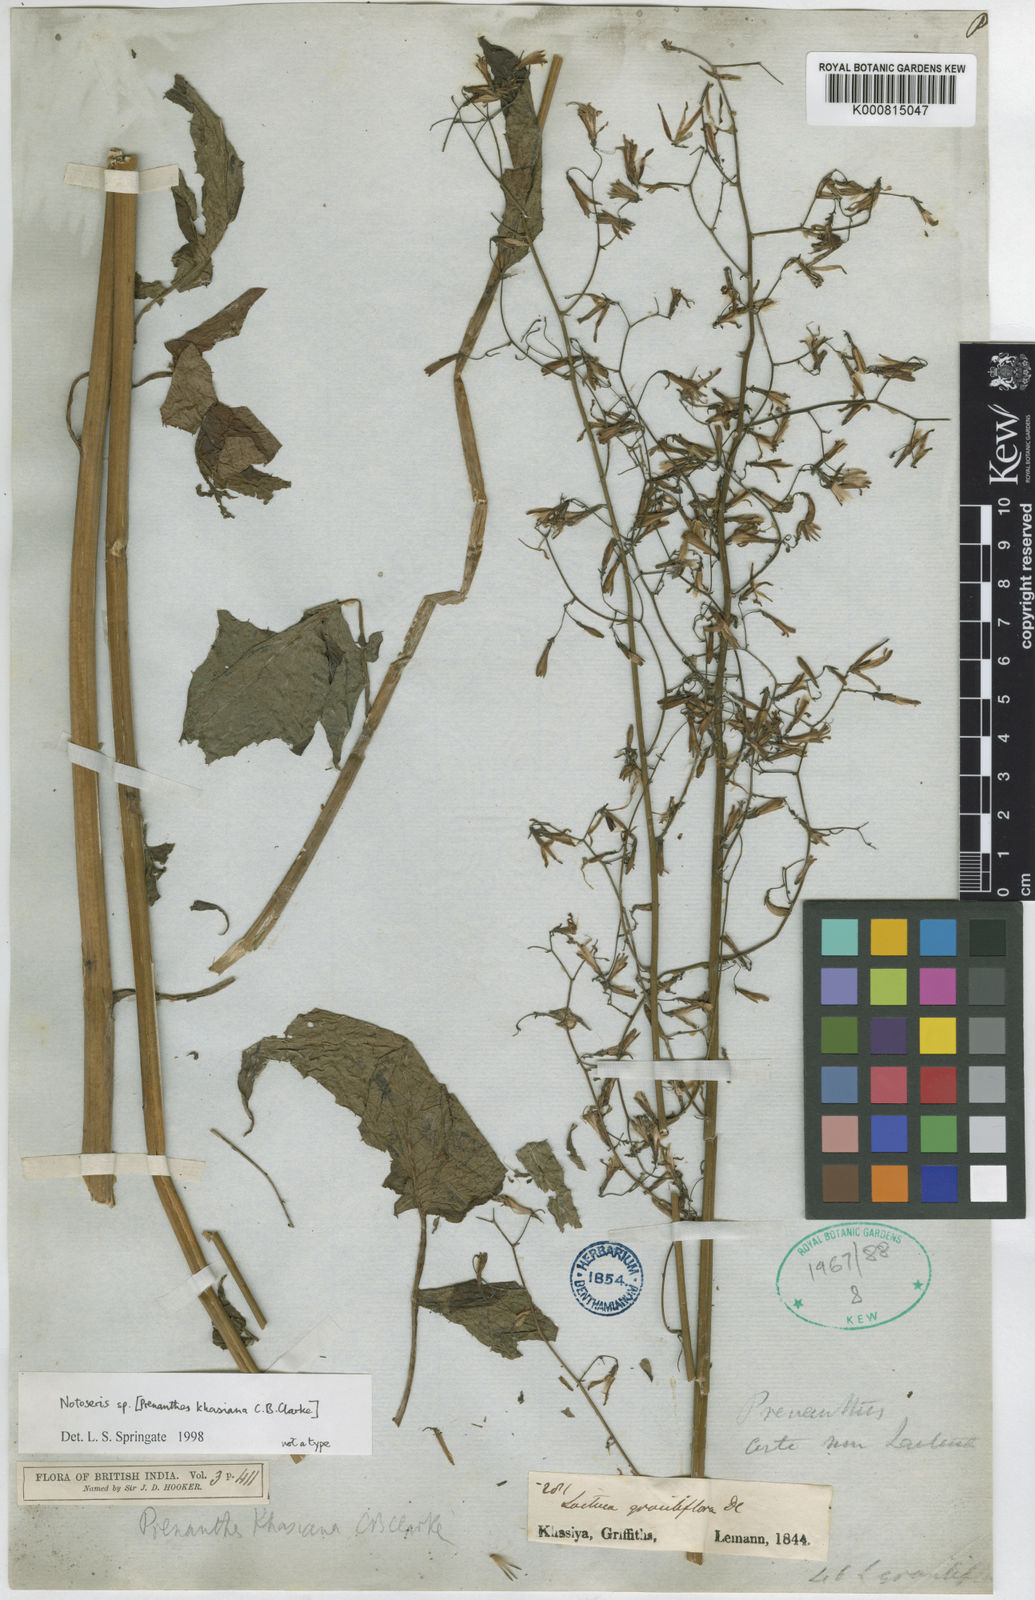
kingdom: Plantae
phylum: Tracheophyta
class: Magnoliopsida
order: Asterales
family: Asteraceae
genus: Notoseris
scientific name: Notoseris khasiana
